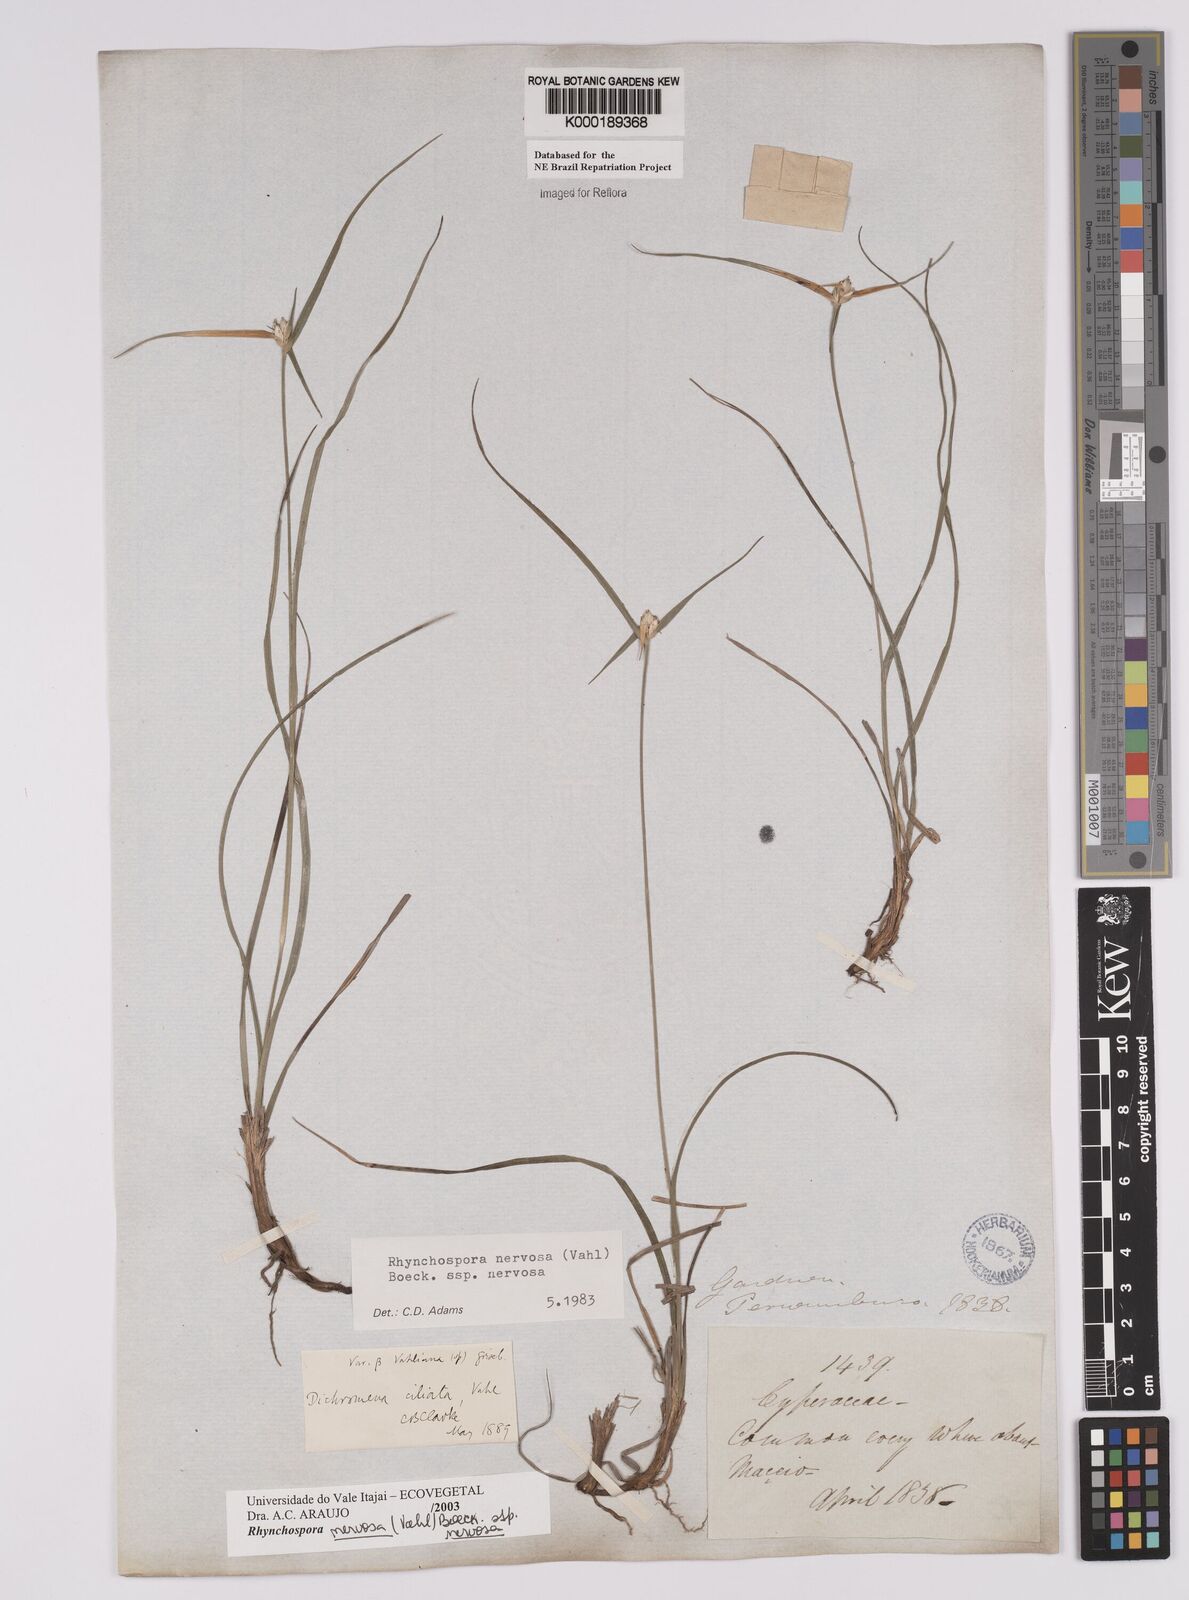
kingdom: Plantae
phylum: Tracheophyta
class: Liliopsida
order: Poales
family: Cyperaceae
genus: Rhynchospora
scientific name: Rhynchospora nervosa
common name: Star sedge
